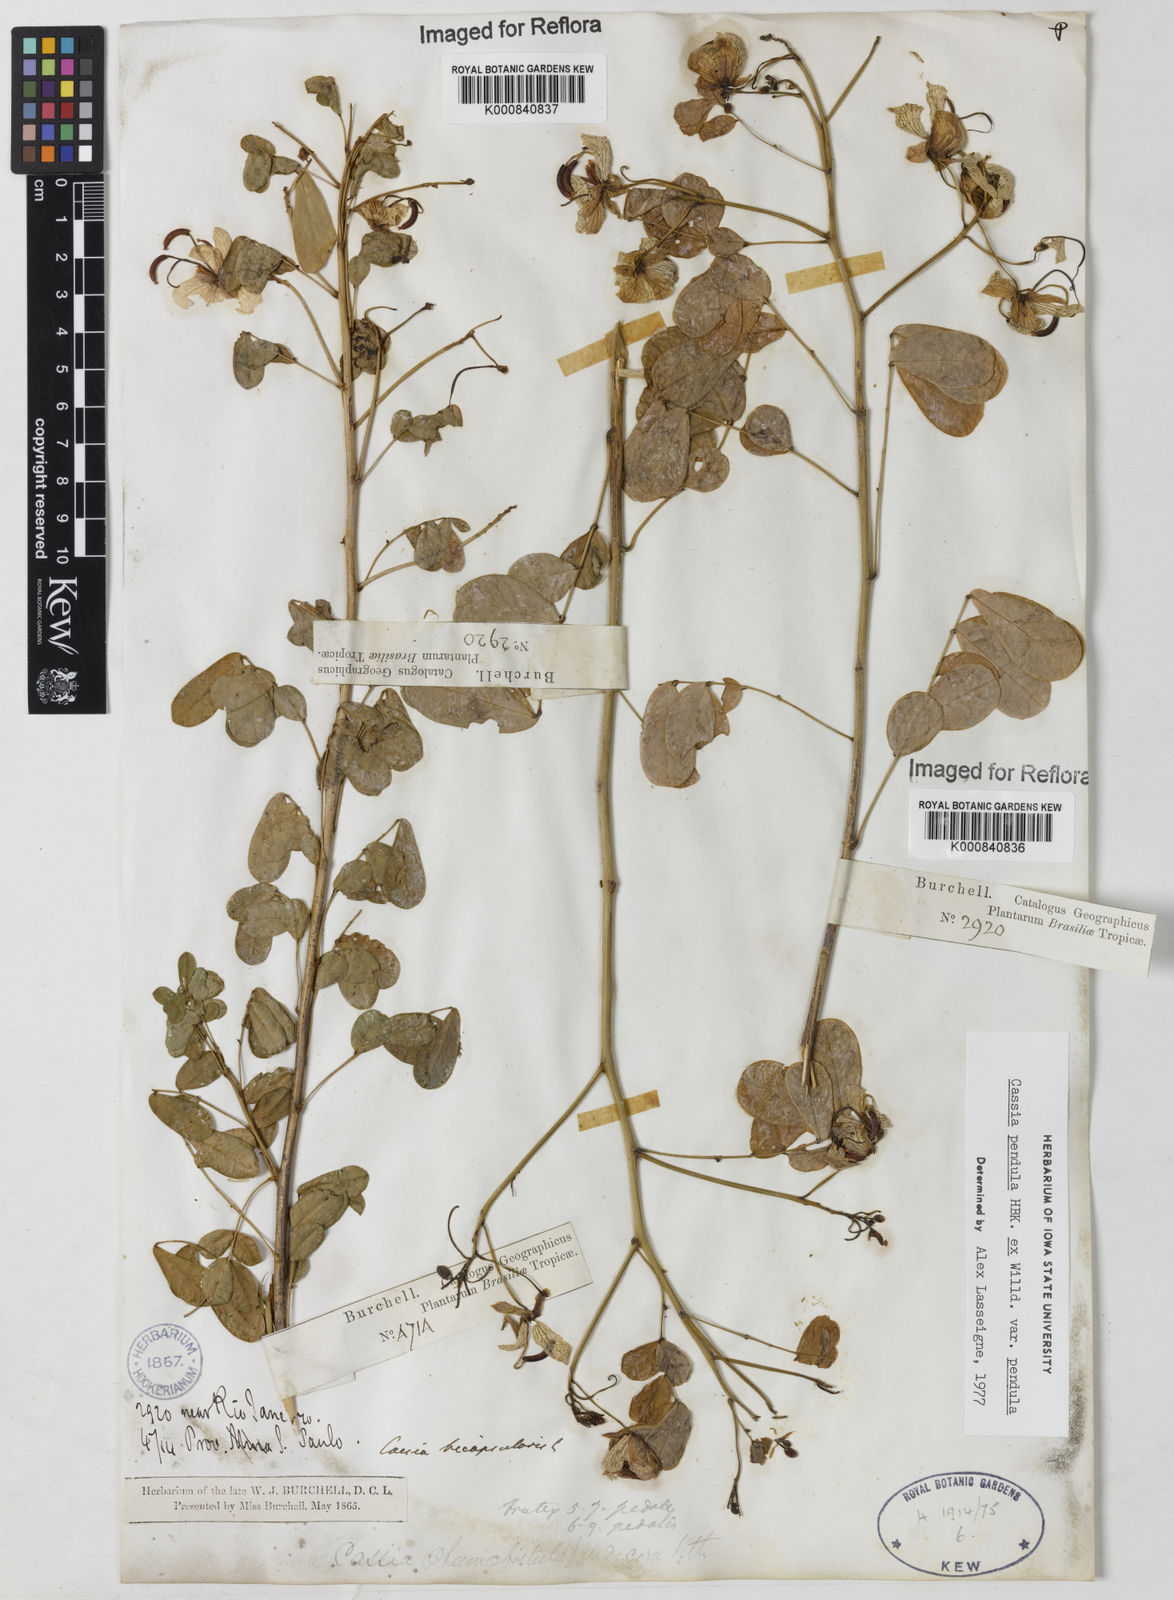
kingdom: Plantae
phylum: Tracheophyta
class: Magnoliopsida
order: Fabales
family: Fabaceae
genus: Senna
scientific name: Senna pendula
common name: Easter cassia
